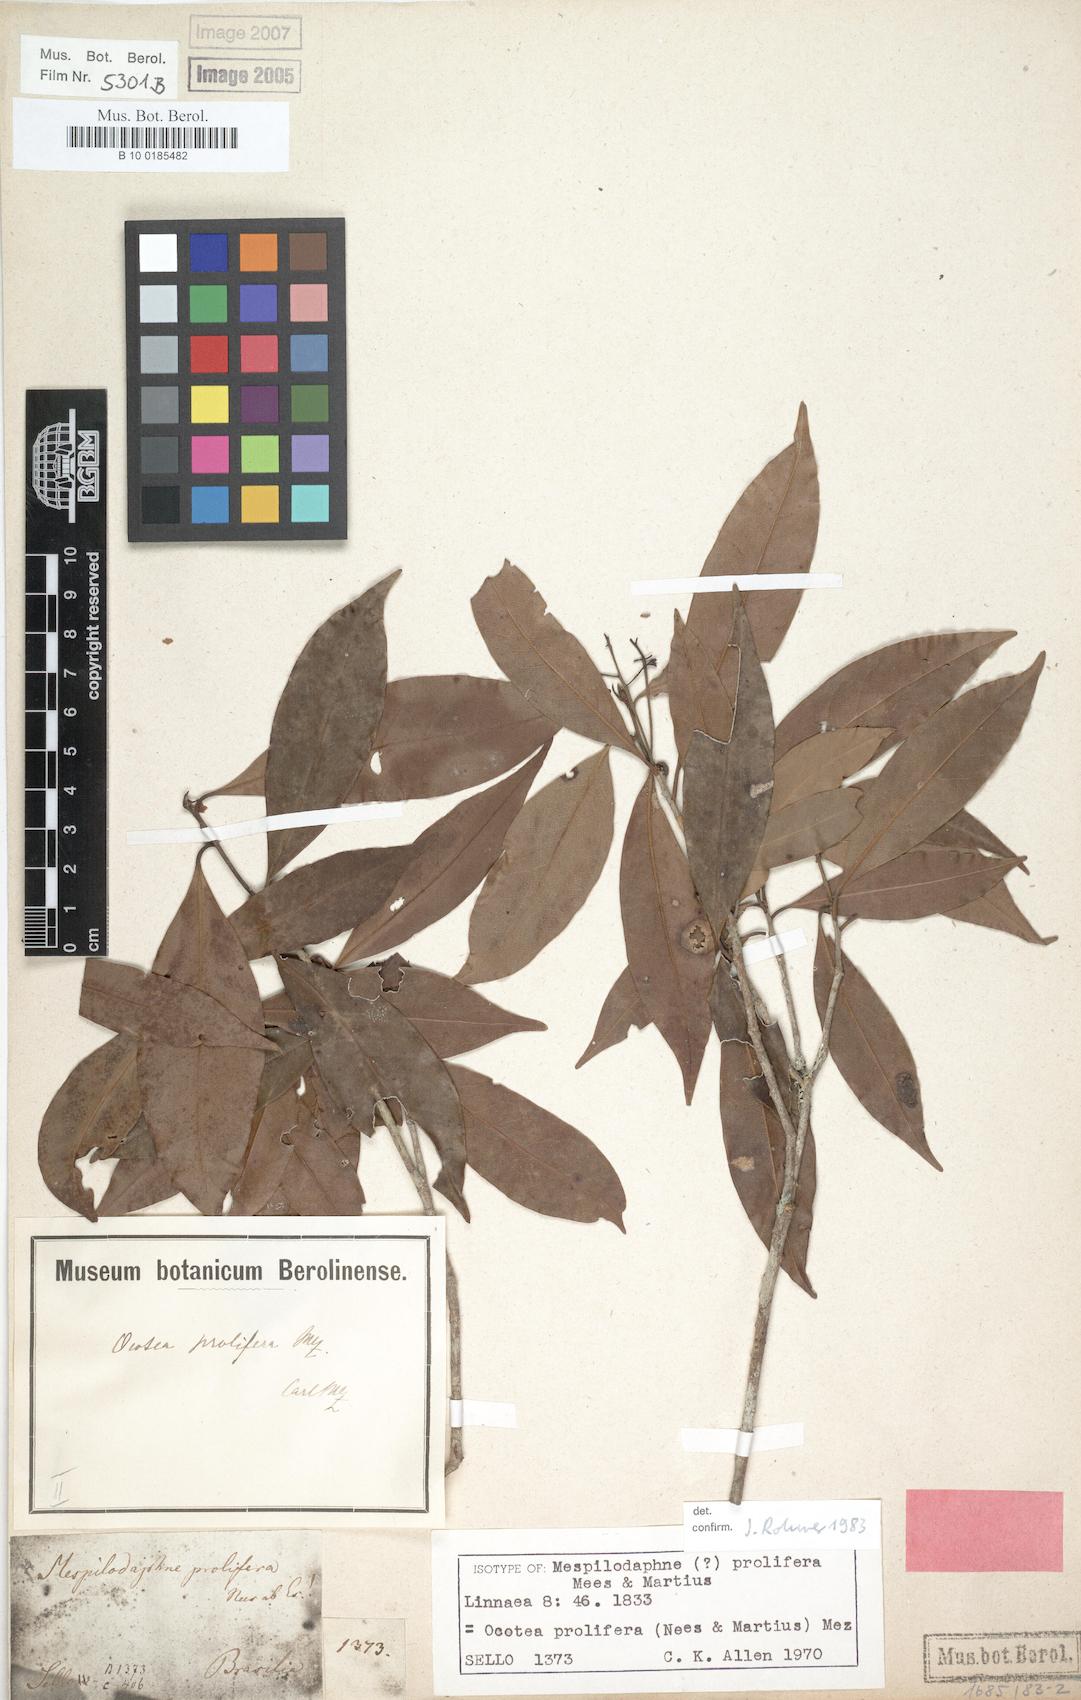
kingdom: Plantae
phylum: Tracheophyta
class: Magnoliopsida
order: Laurales
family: Lauraceae
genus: Mespilodaphne
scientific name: Mespilodaphne prolifera
